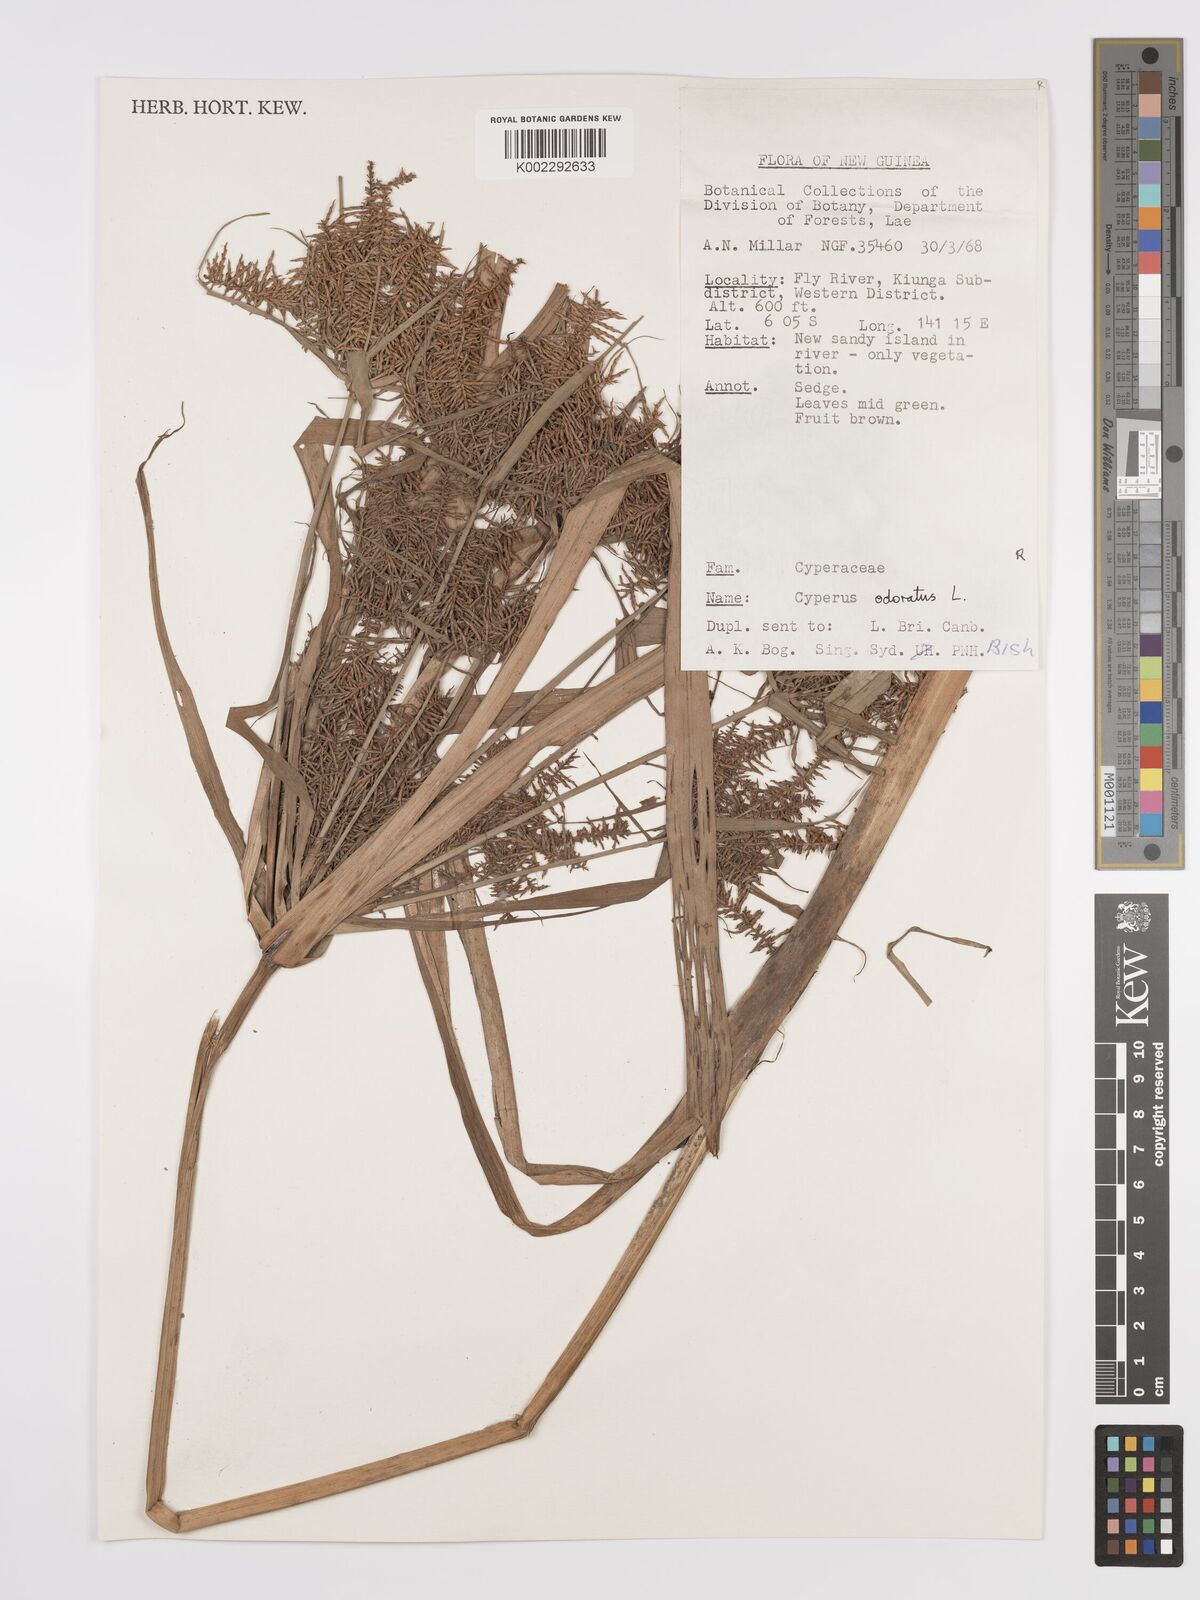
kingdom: Plantae
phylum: Tracheophyta
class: Liliopsida
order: Poales
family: Cyperaceae
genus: Cyperus
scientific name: Cyperus odoratus
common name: Fragrant flatsedge
